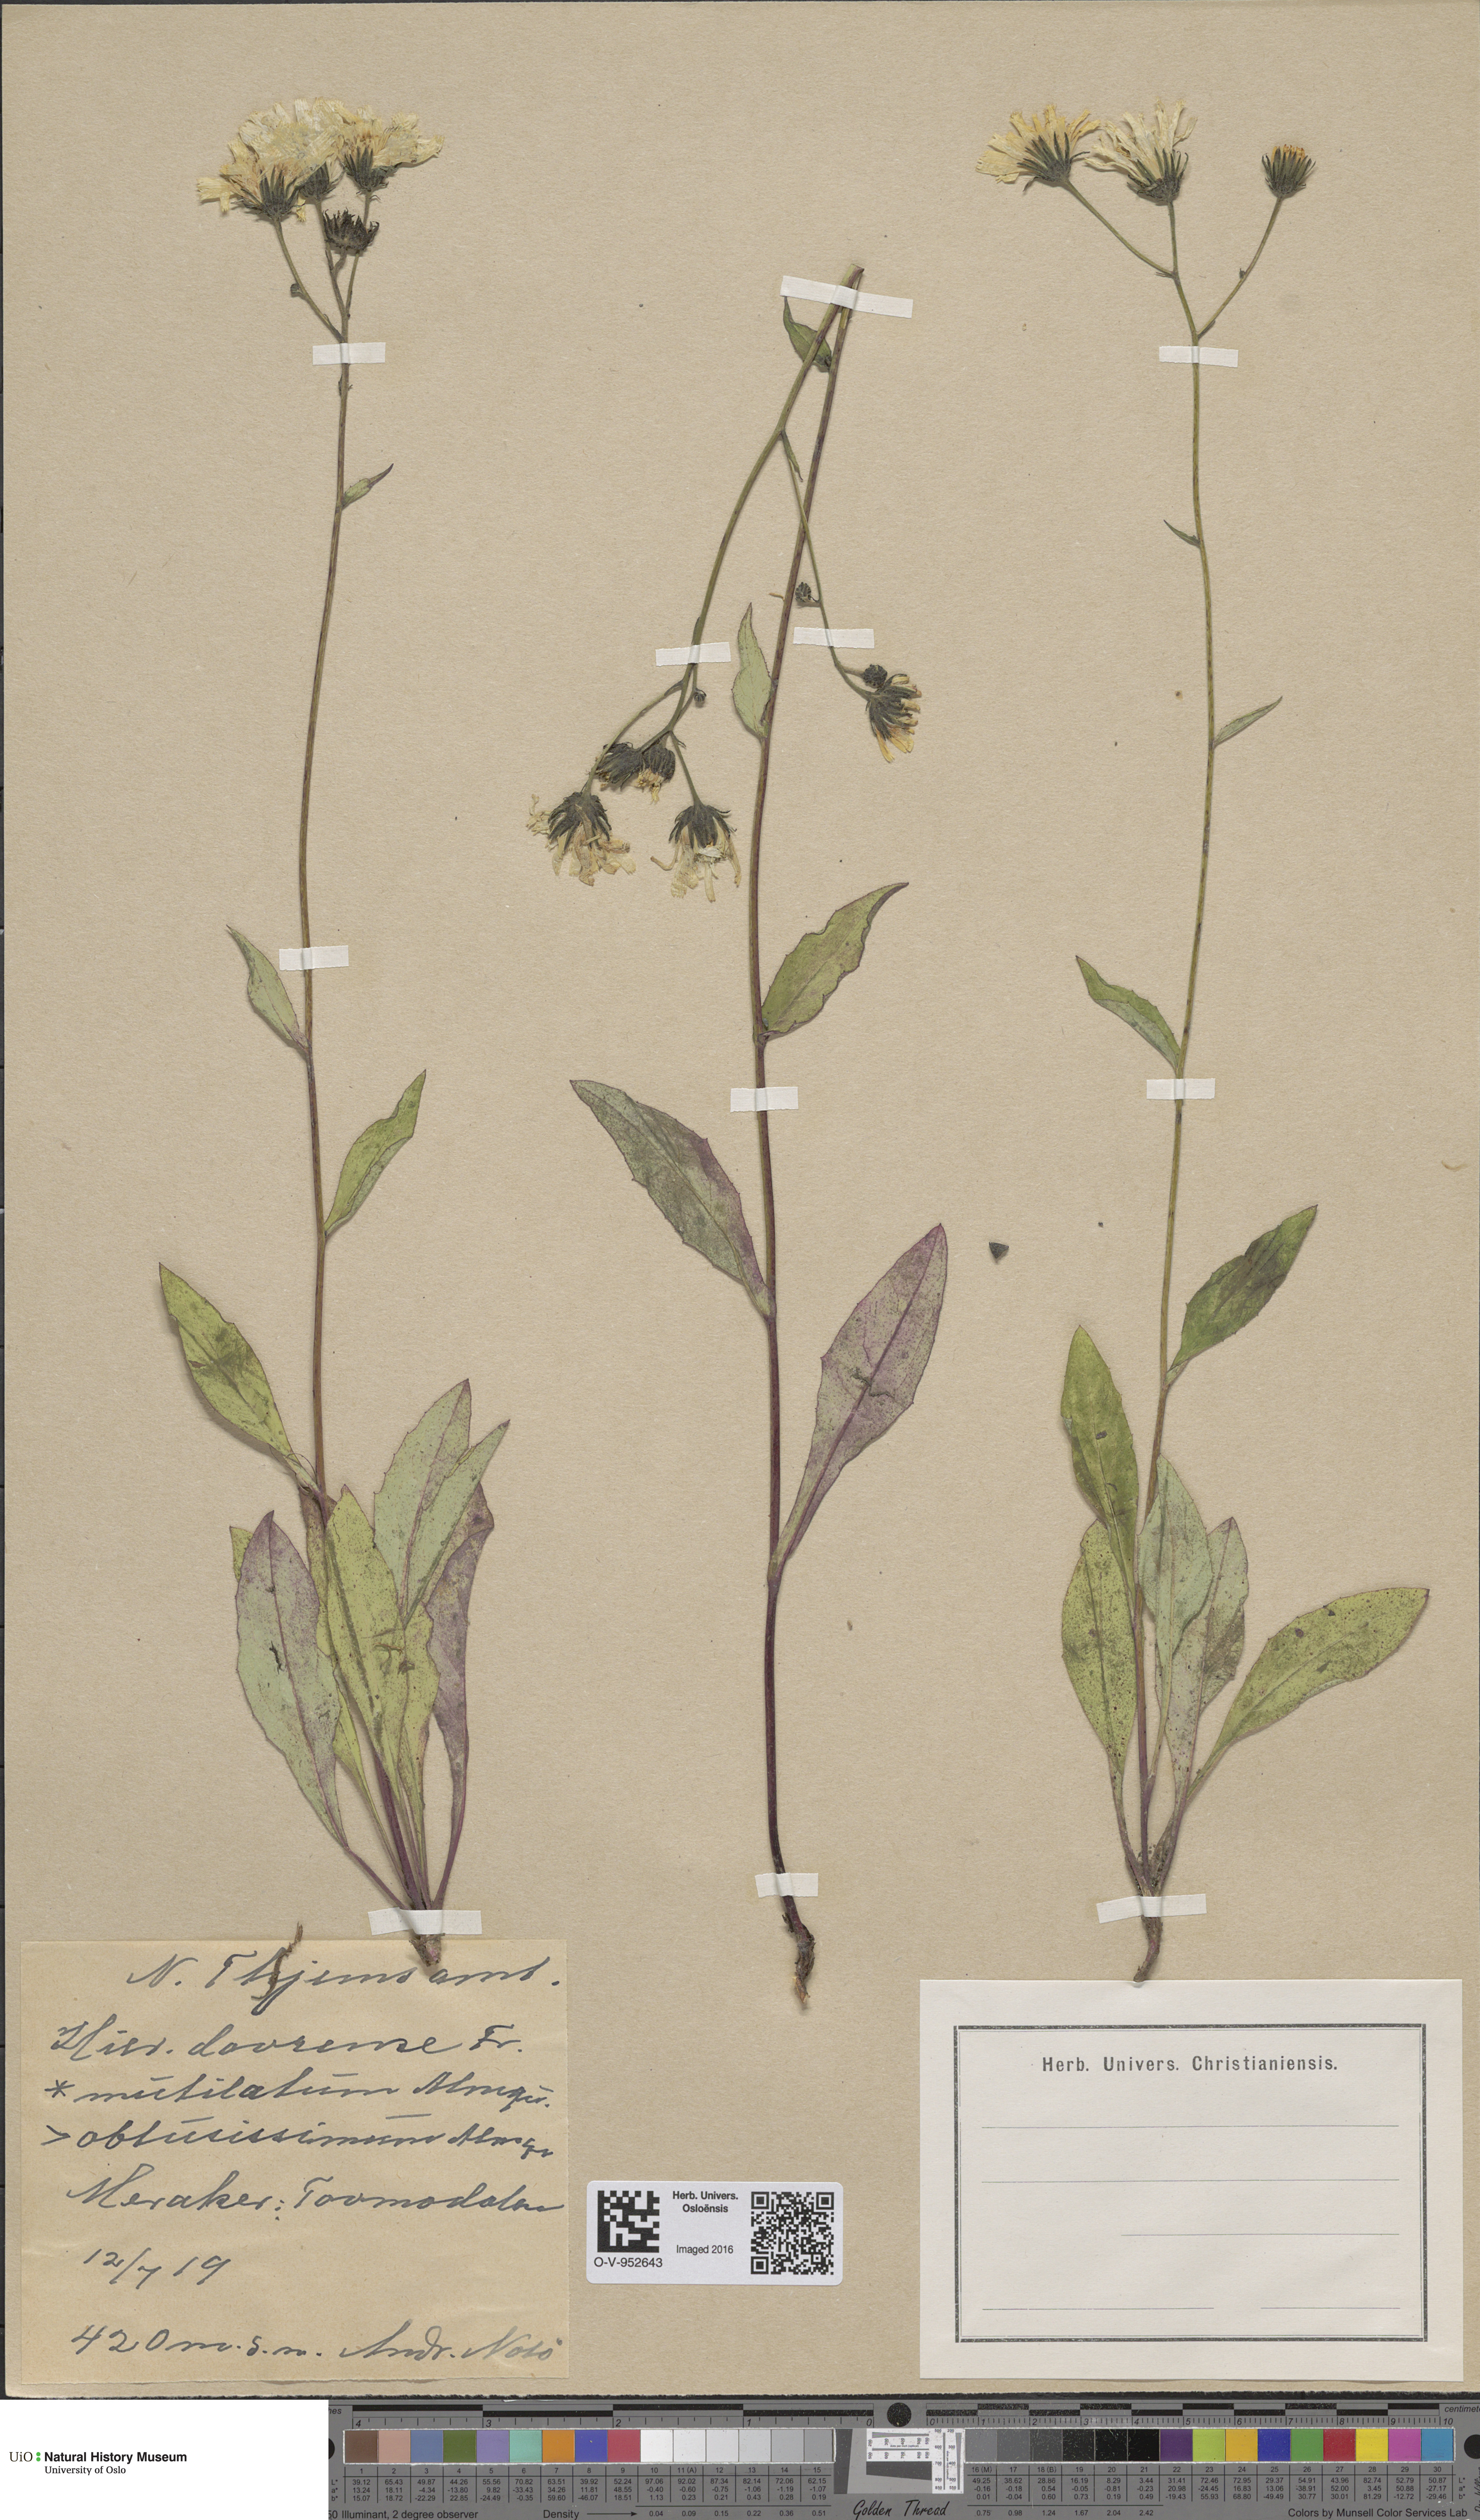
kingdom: Plantae
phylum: Tracheophyta
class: Magnoliopsida
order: Asterales
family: Asteraceae
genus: Hieracium
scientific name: Hieracium dovrense
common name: Dovre hawkweed
